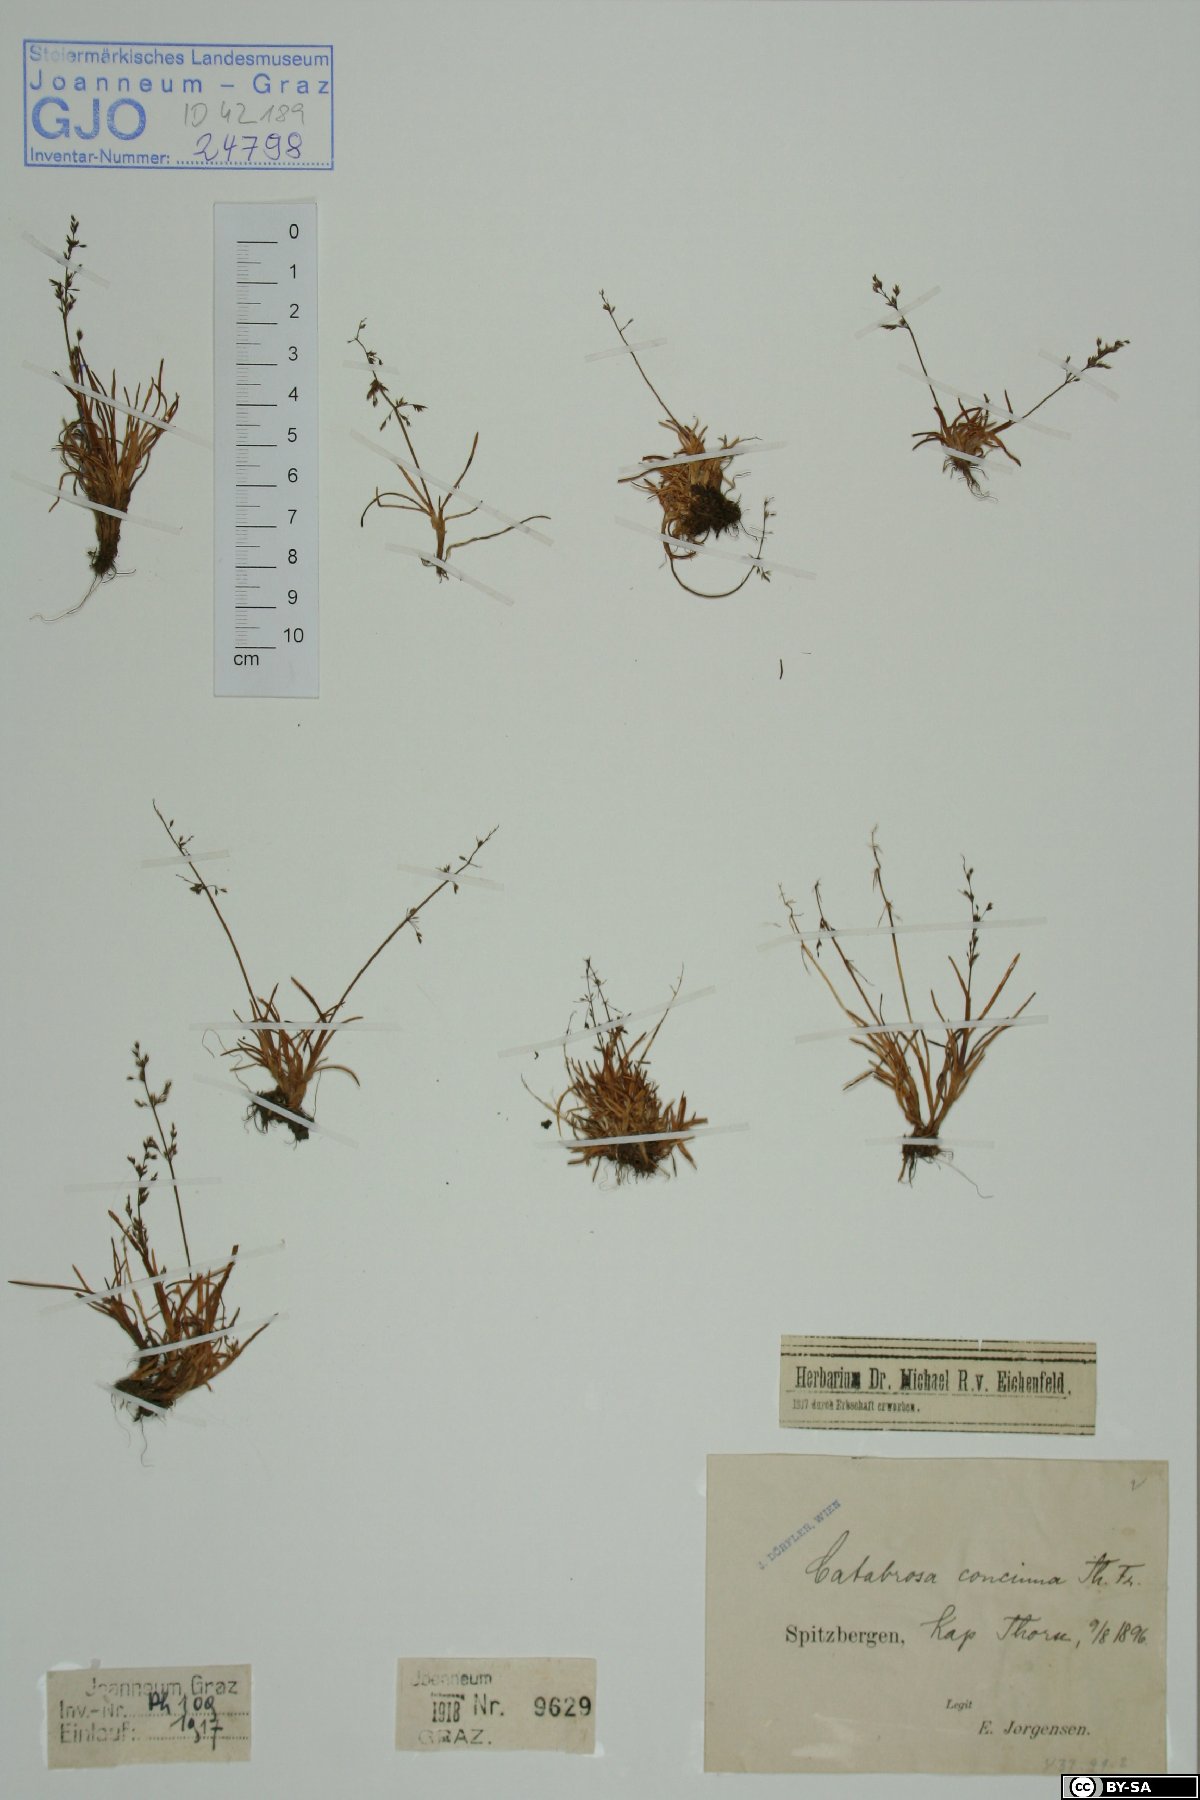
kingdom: Plantae
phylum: Tracheophyta
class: Liliopsida
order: Poales
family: Poaceae
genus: Phippsia
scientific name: Phippsia concinna
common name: Snowgrass
